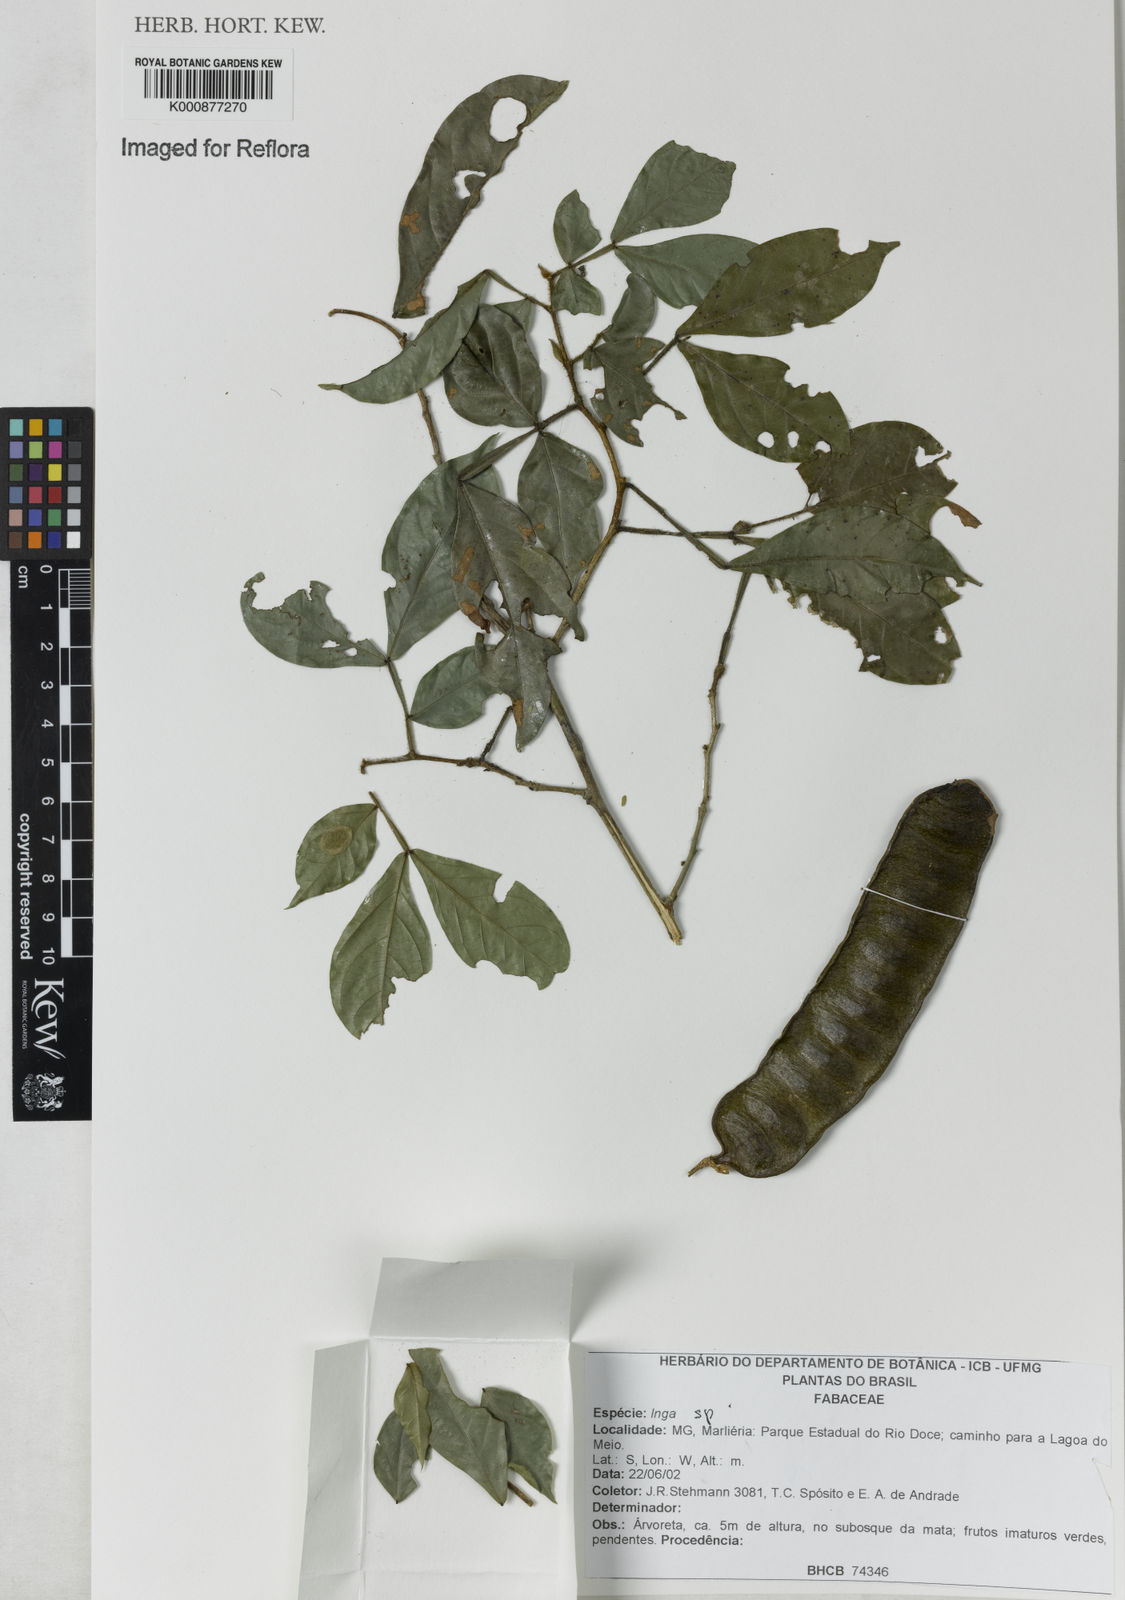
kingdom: Plantae
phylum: Tracheophyta
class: Magnoliopsida
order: Fabales
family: Fabaceae
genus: Inga
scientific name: Inga
